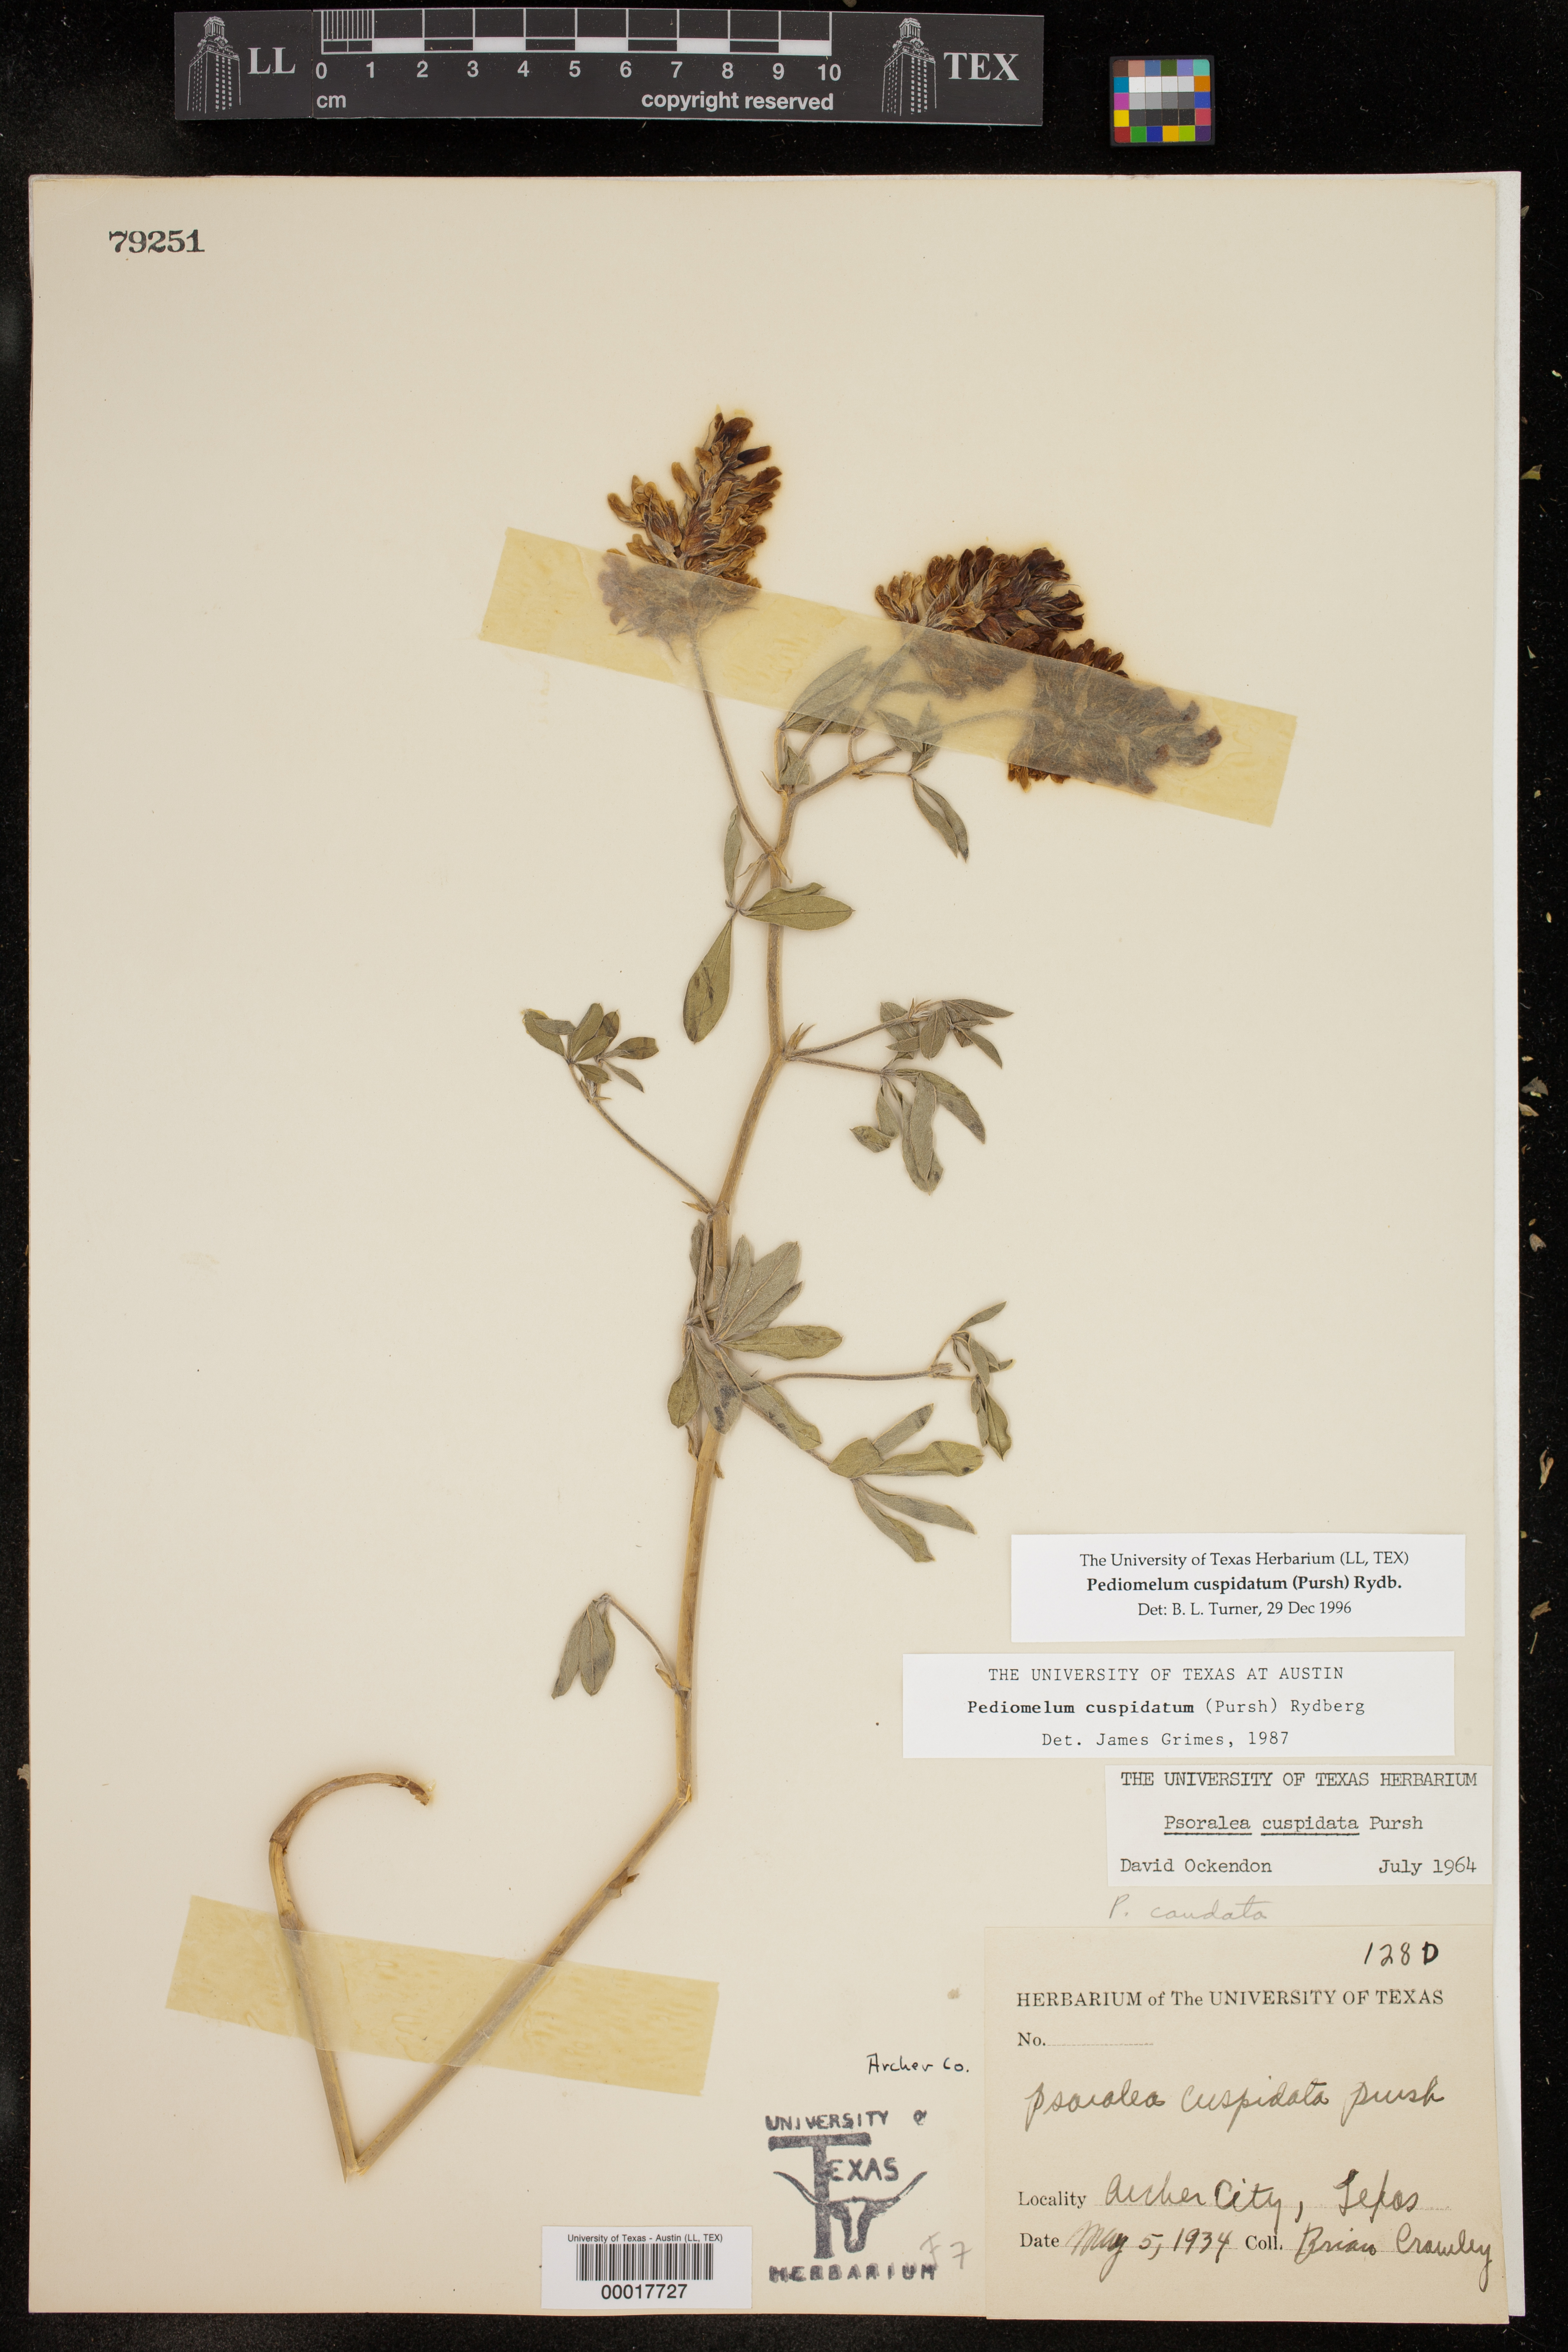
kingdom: Plantae
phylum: Tracheophyta
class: Magnoliopsida
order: Fabales
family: Fabaceae
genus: Pediomelum
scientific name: Pediomelum cuspidatum
